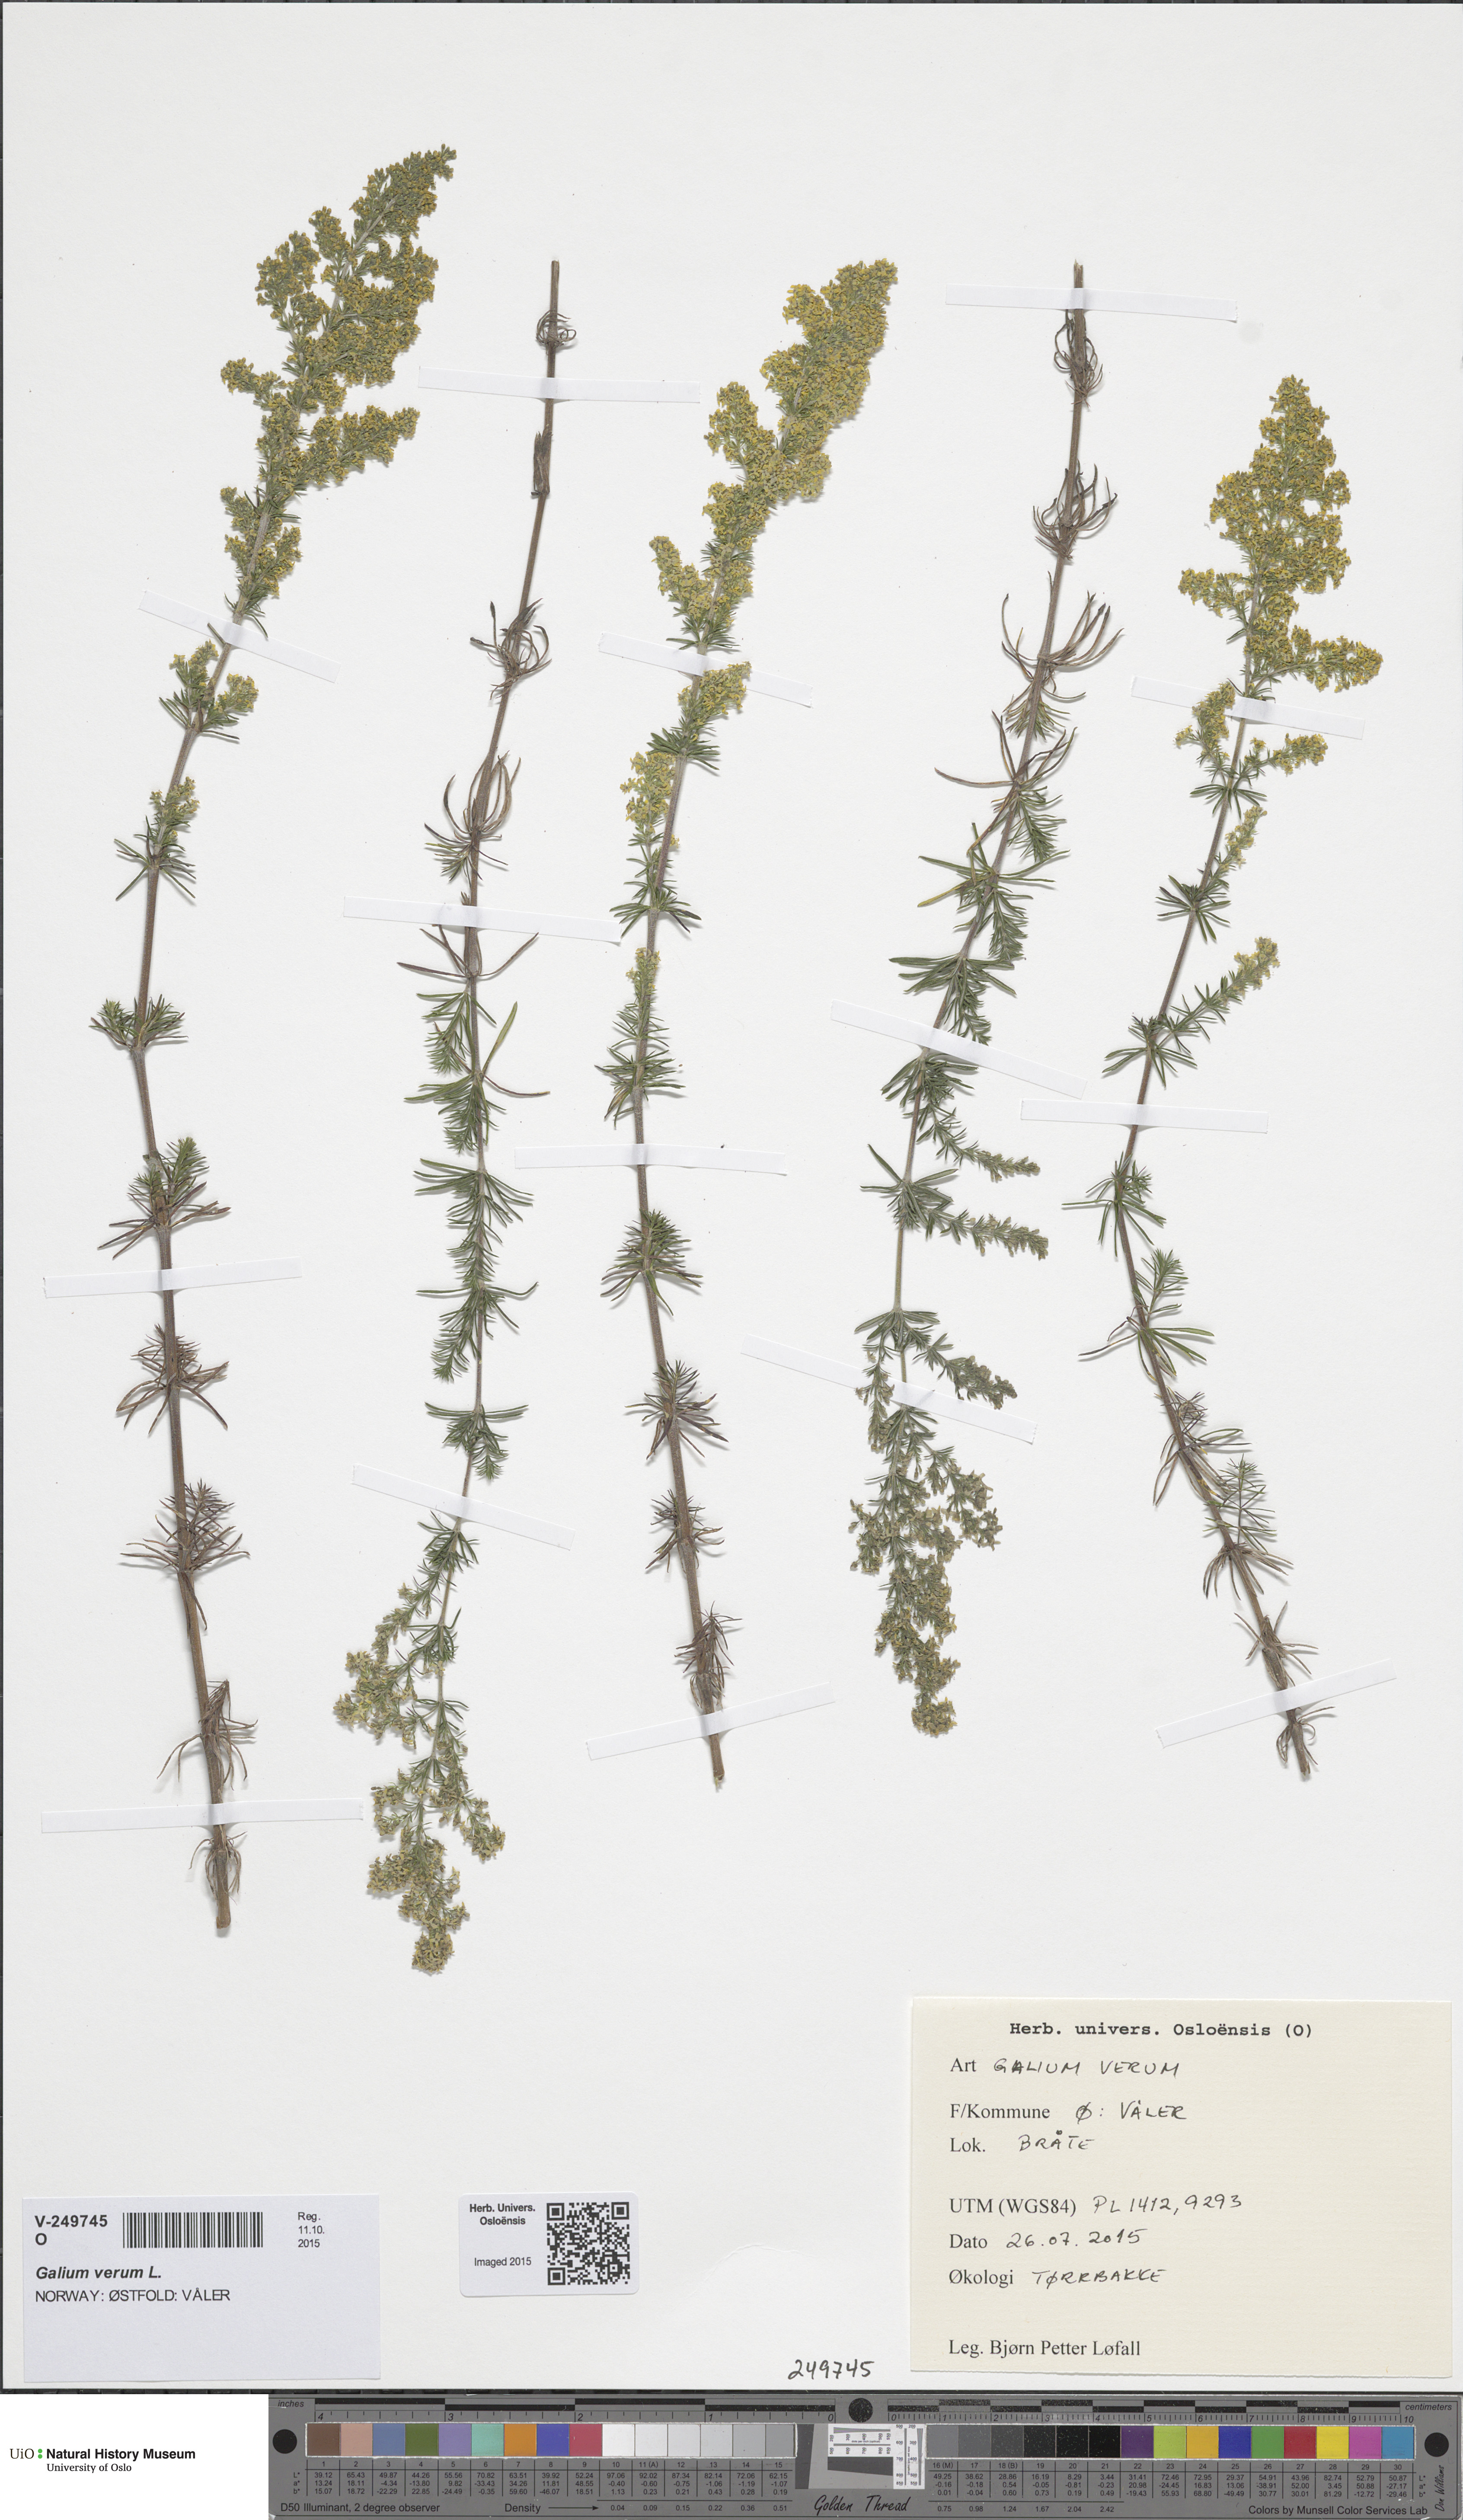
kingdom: Plantae
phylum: Tracheophyta
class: Magnoliopsida
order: Gentianales
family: Rubiaceae
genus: Galium
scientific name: Galium verum
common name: Lady's bedstraw
